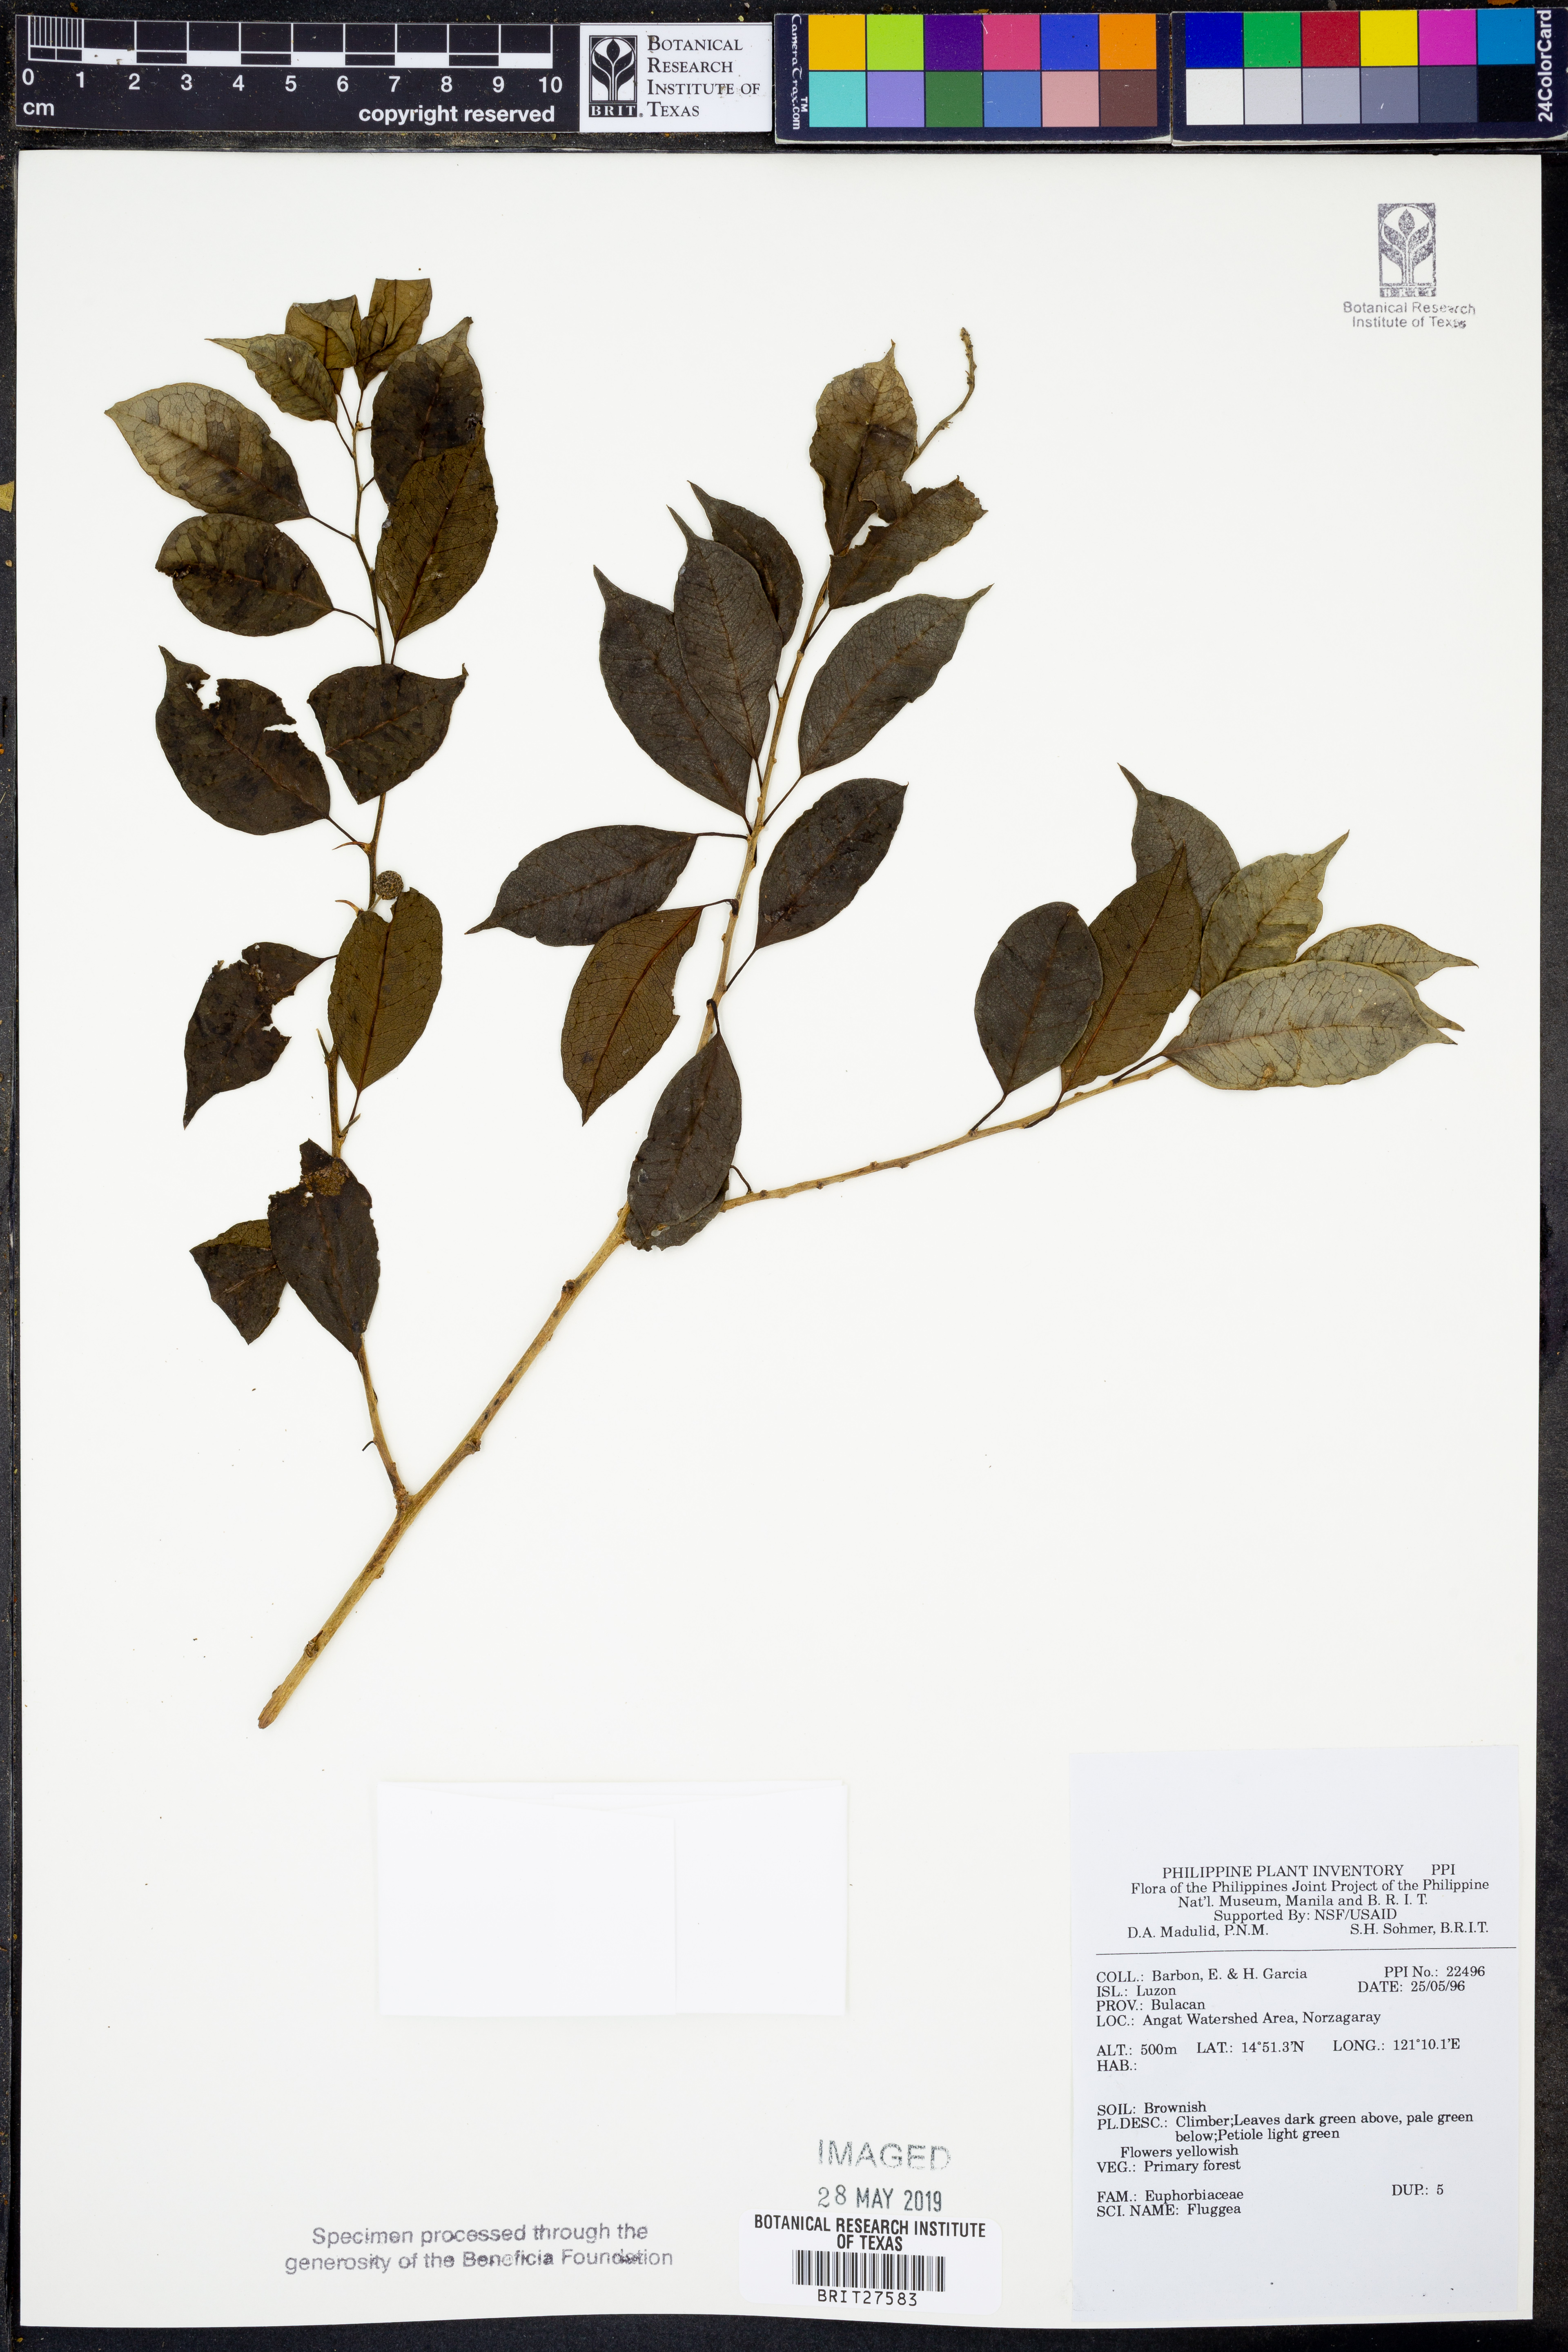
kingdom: Plantae
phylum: Tracheophyta
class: Magnoliopsida
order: Malpighiales
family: Phyllanthaceae
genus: Flueggea
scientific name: Flueggea
